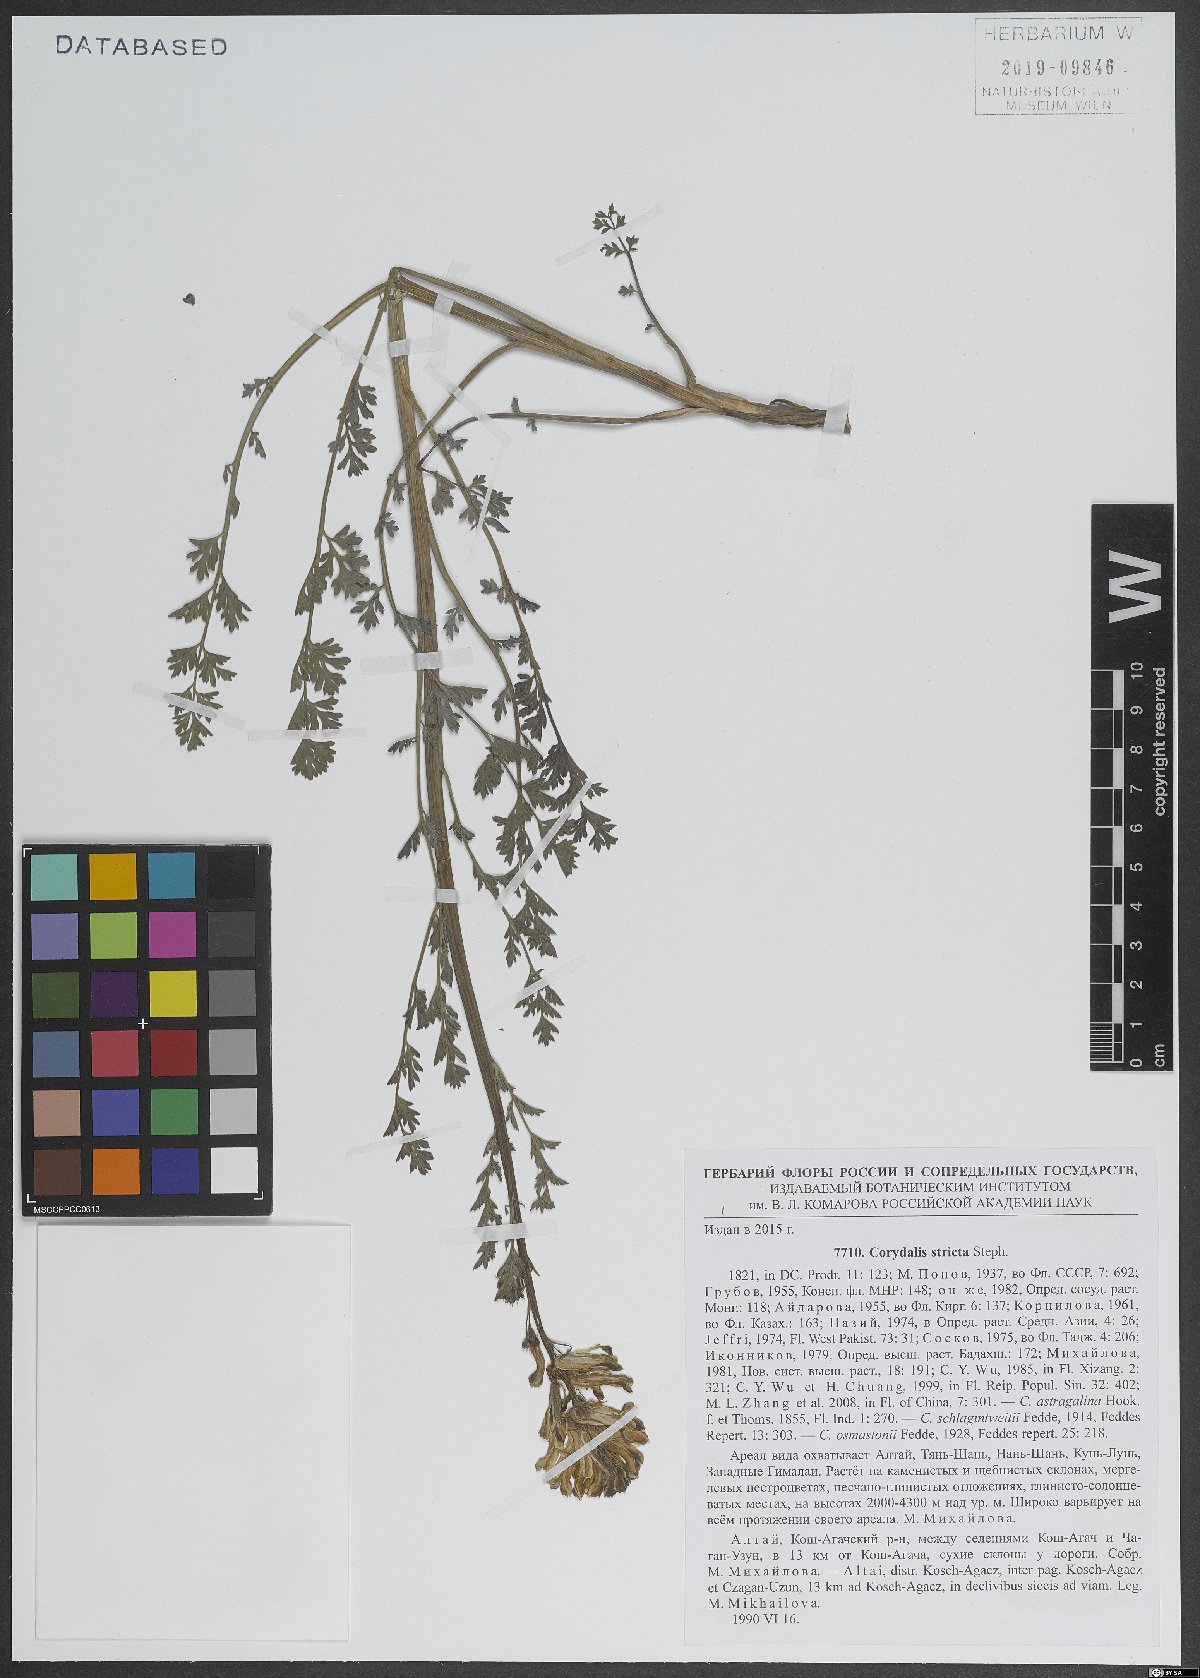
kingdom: Plantae
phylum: Tracheophyta
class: Magnoliopsida
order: Ranunculales
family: Papaveraceae
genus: Corydalis
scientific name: Corydalis stricta
